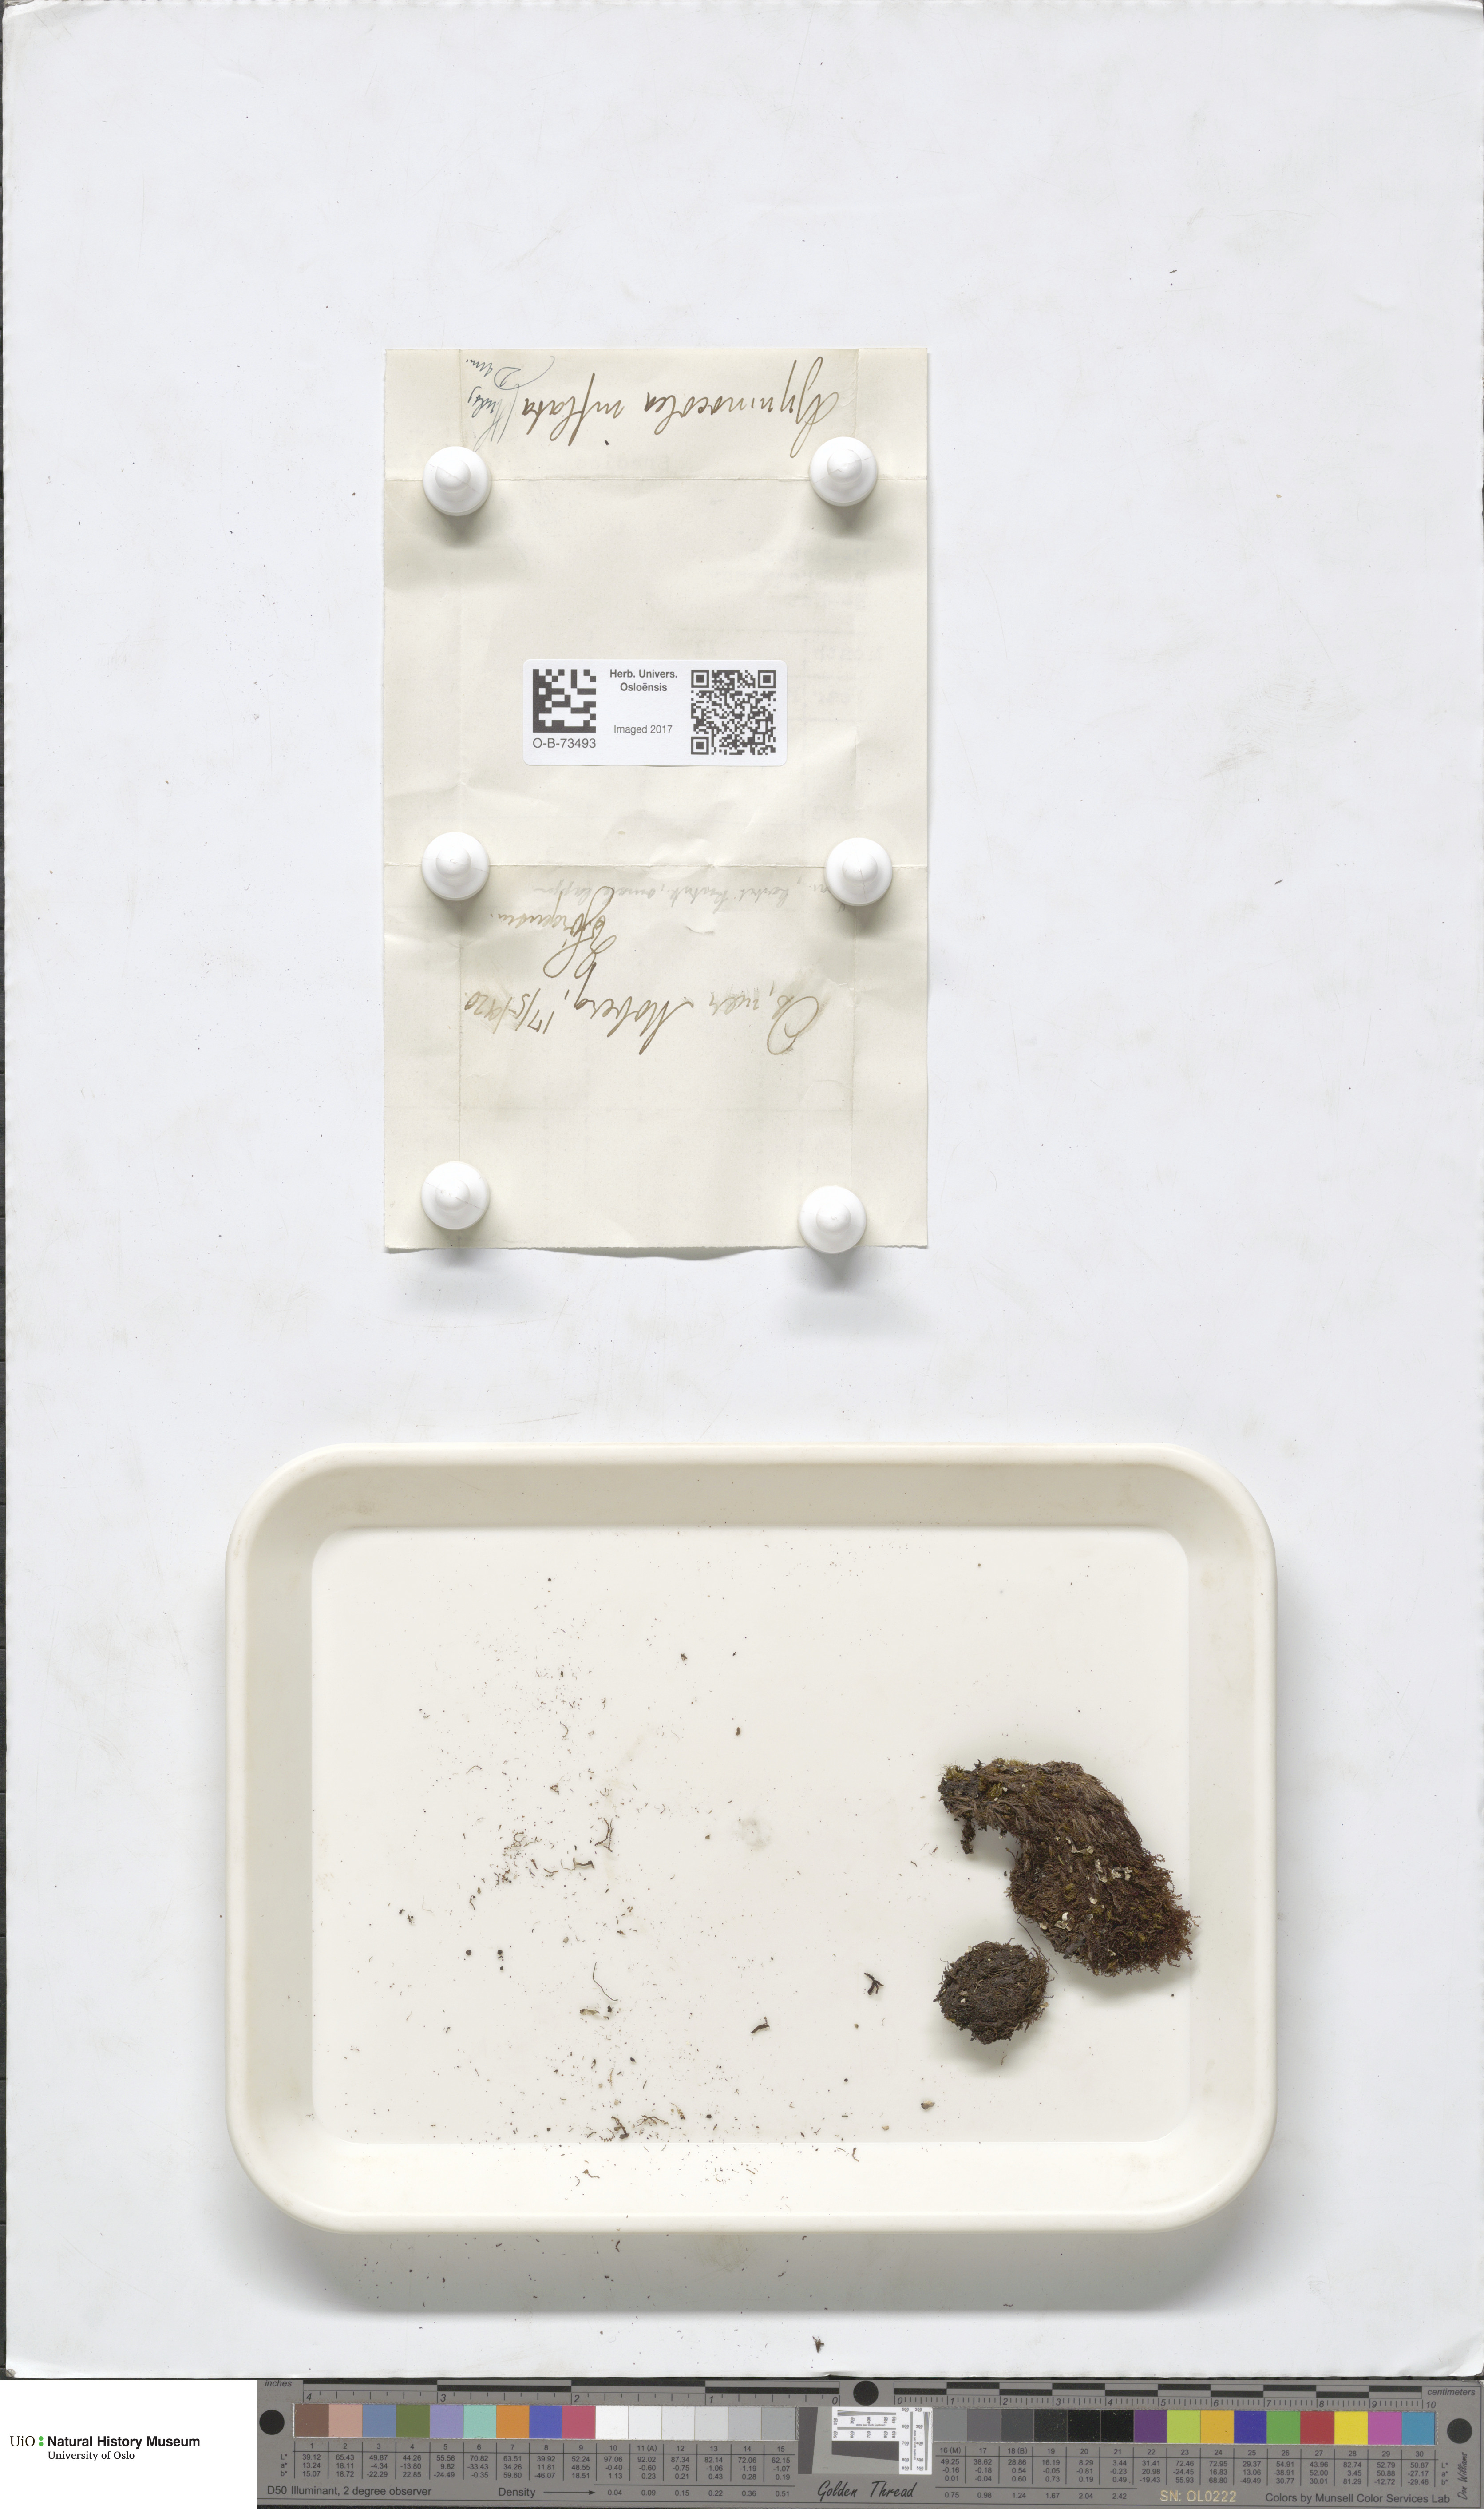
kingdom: Plantae
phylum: Marchantiophyta
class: Jungermanniopsida
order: Jungermanniales
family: Anastrophyllaceae
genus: Gymnocolea
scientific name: Gymnocolea inflata
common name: Inflated notchwort
